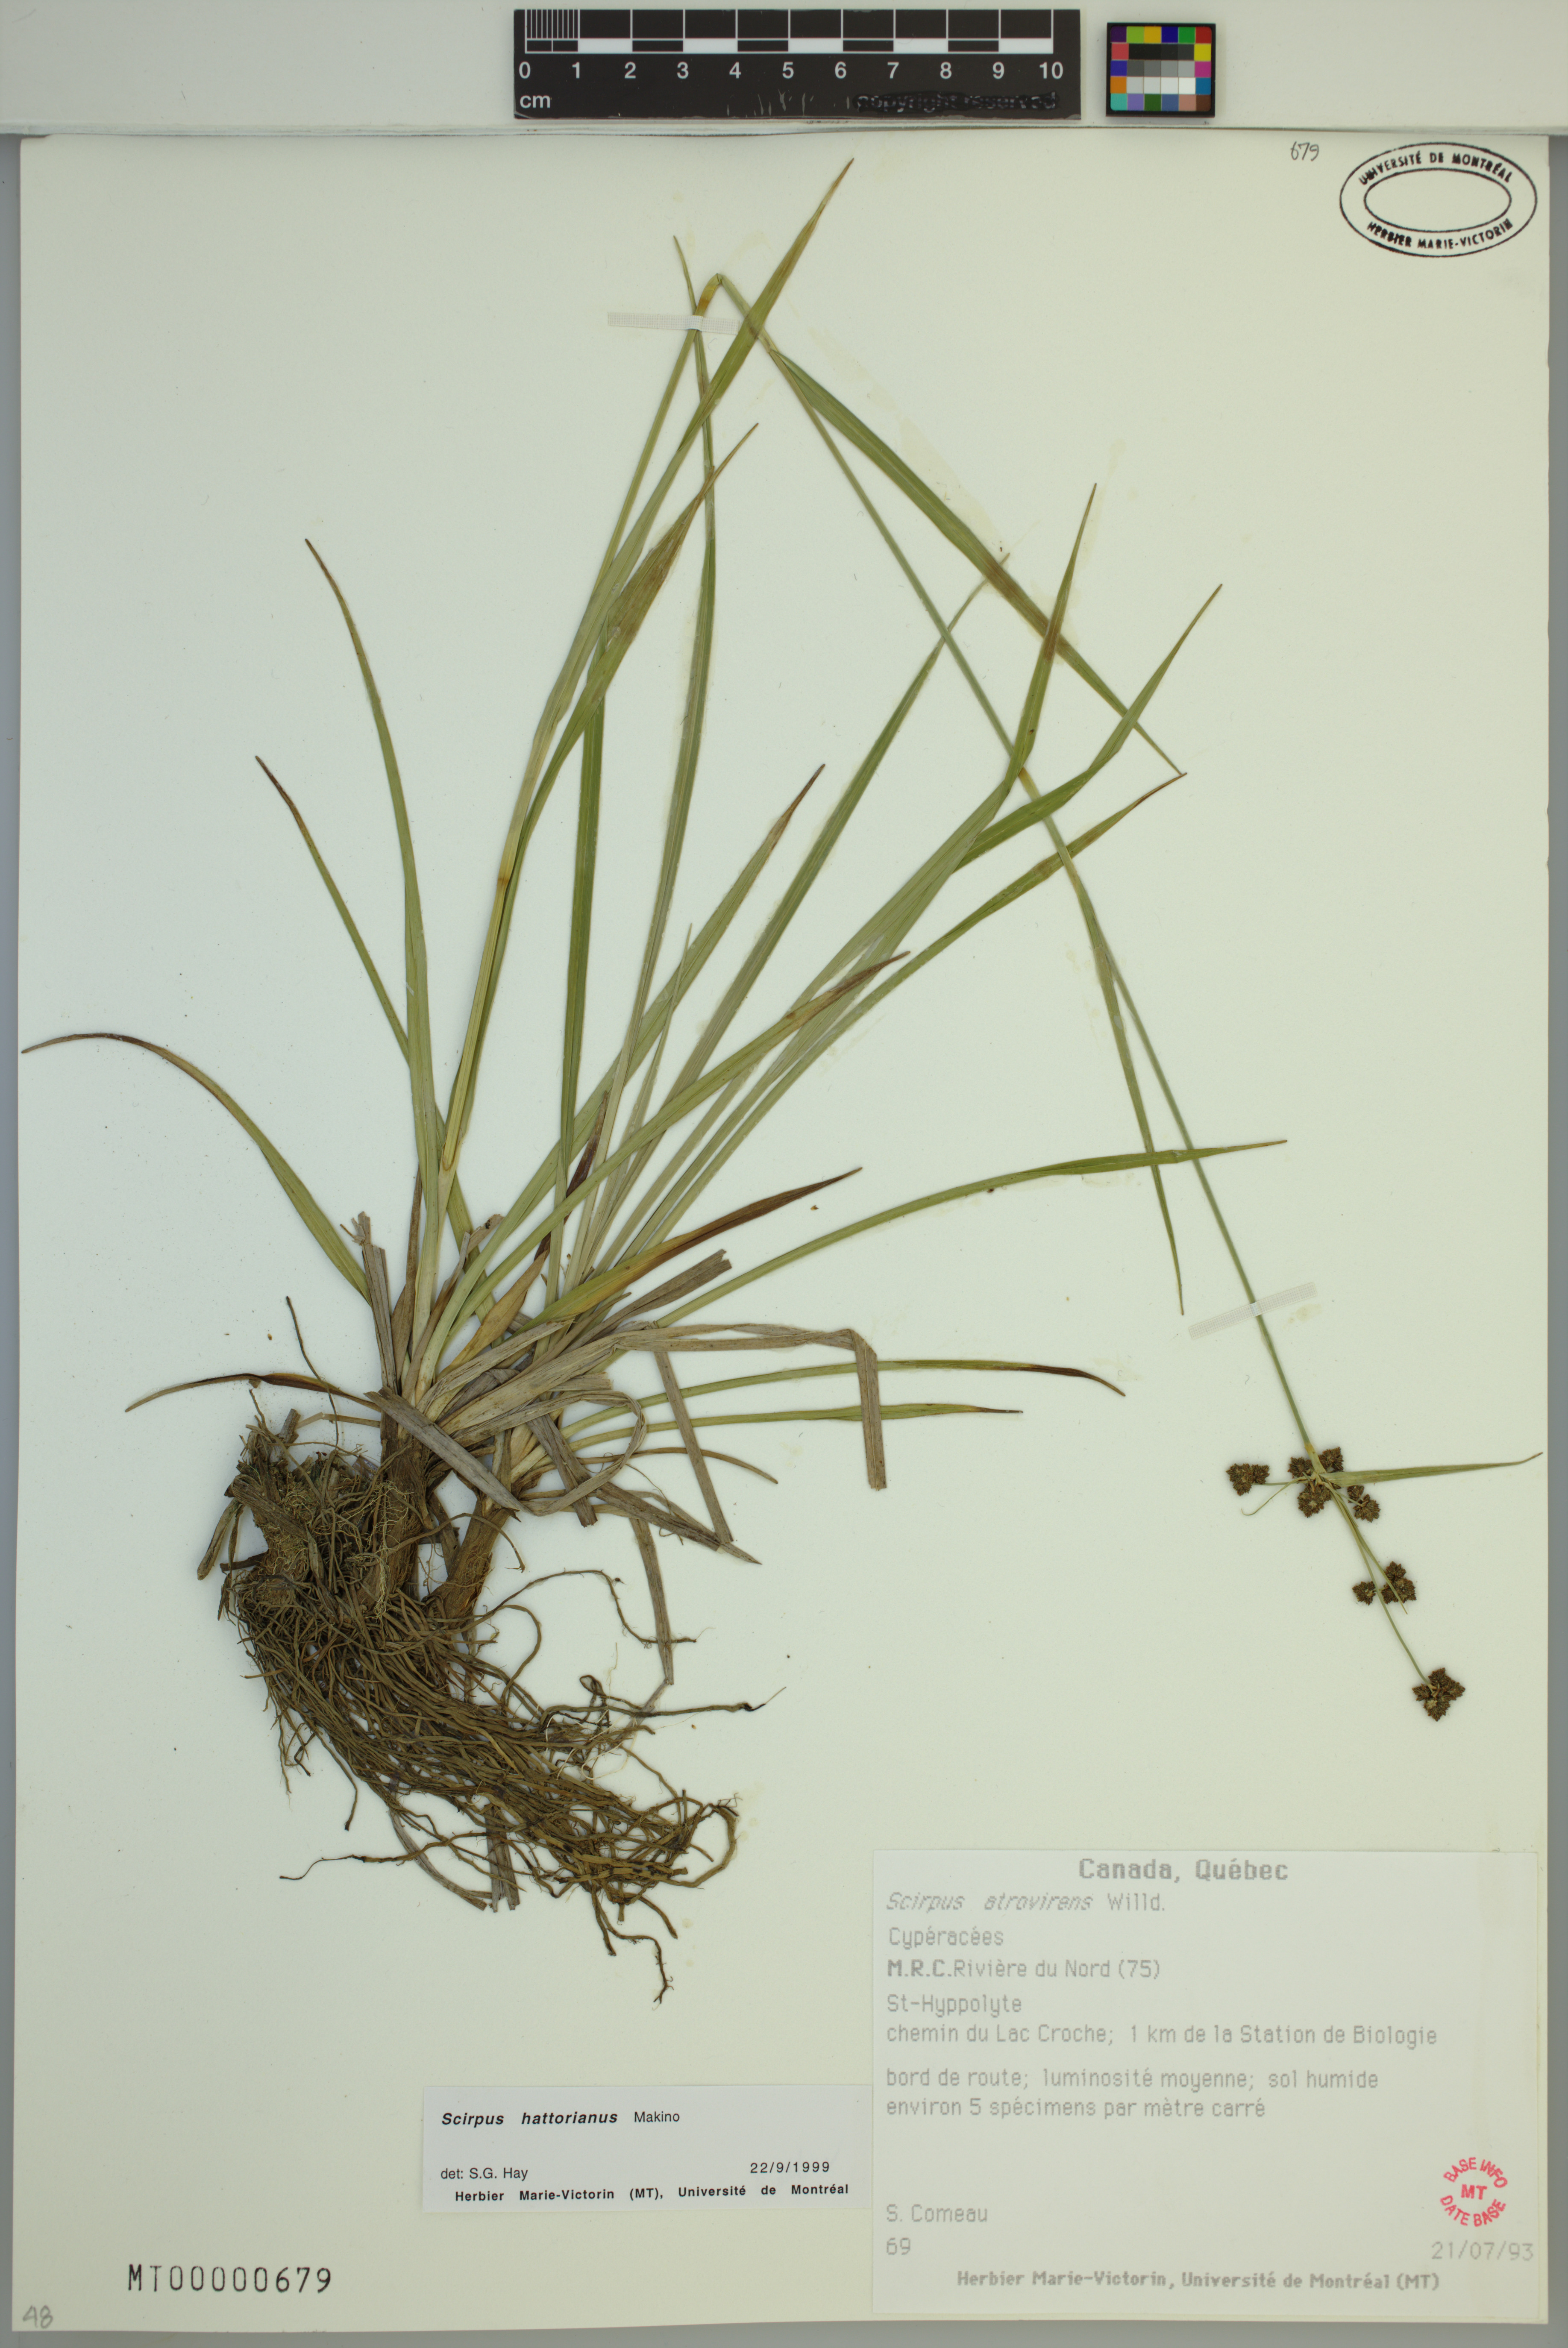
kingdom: Plantae
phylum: Tracheophyta
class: Liliopsida
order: Poales
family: Cyperaceae
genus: Scirpus
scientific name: Scirpus hattorianus
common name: Early dark-green bulrush
